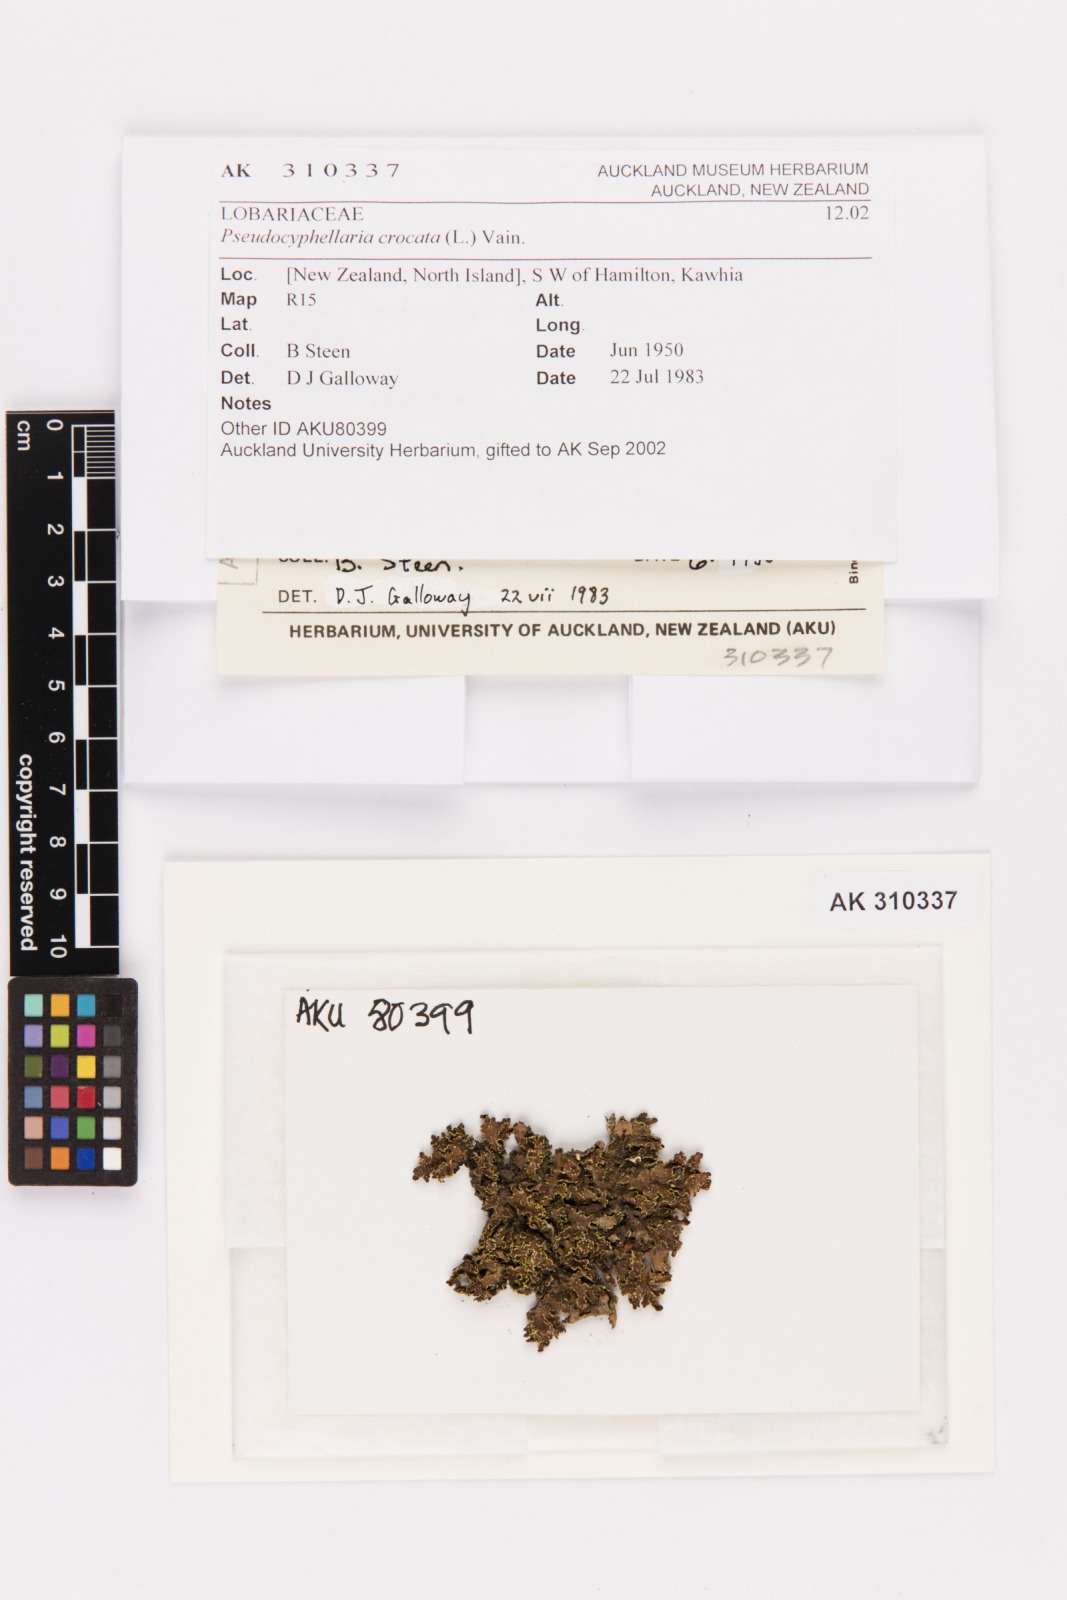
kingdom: Fungi
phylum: Ascomycota
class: Lecanoromycetes
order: Peltigerales
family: Lobariaceae
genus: Pseudocyphellaria
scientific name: Pseudocyphellaria crocata
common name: Golden specklebelly
